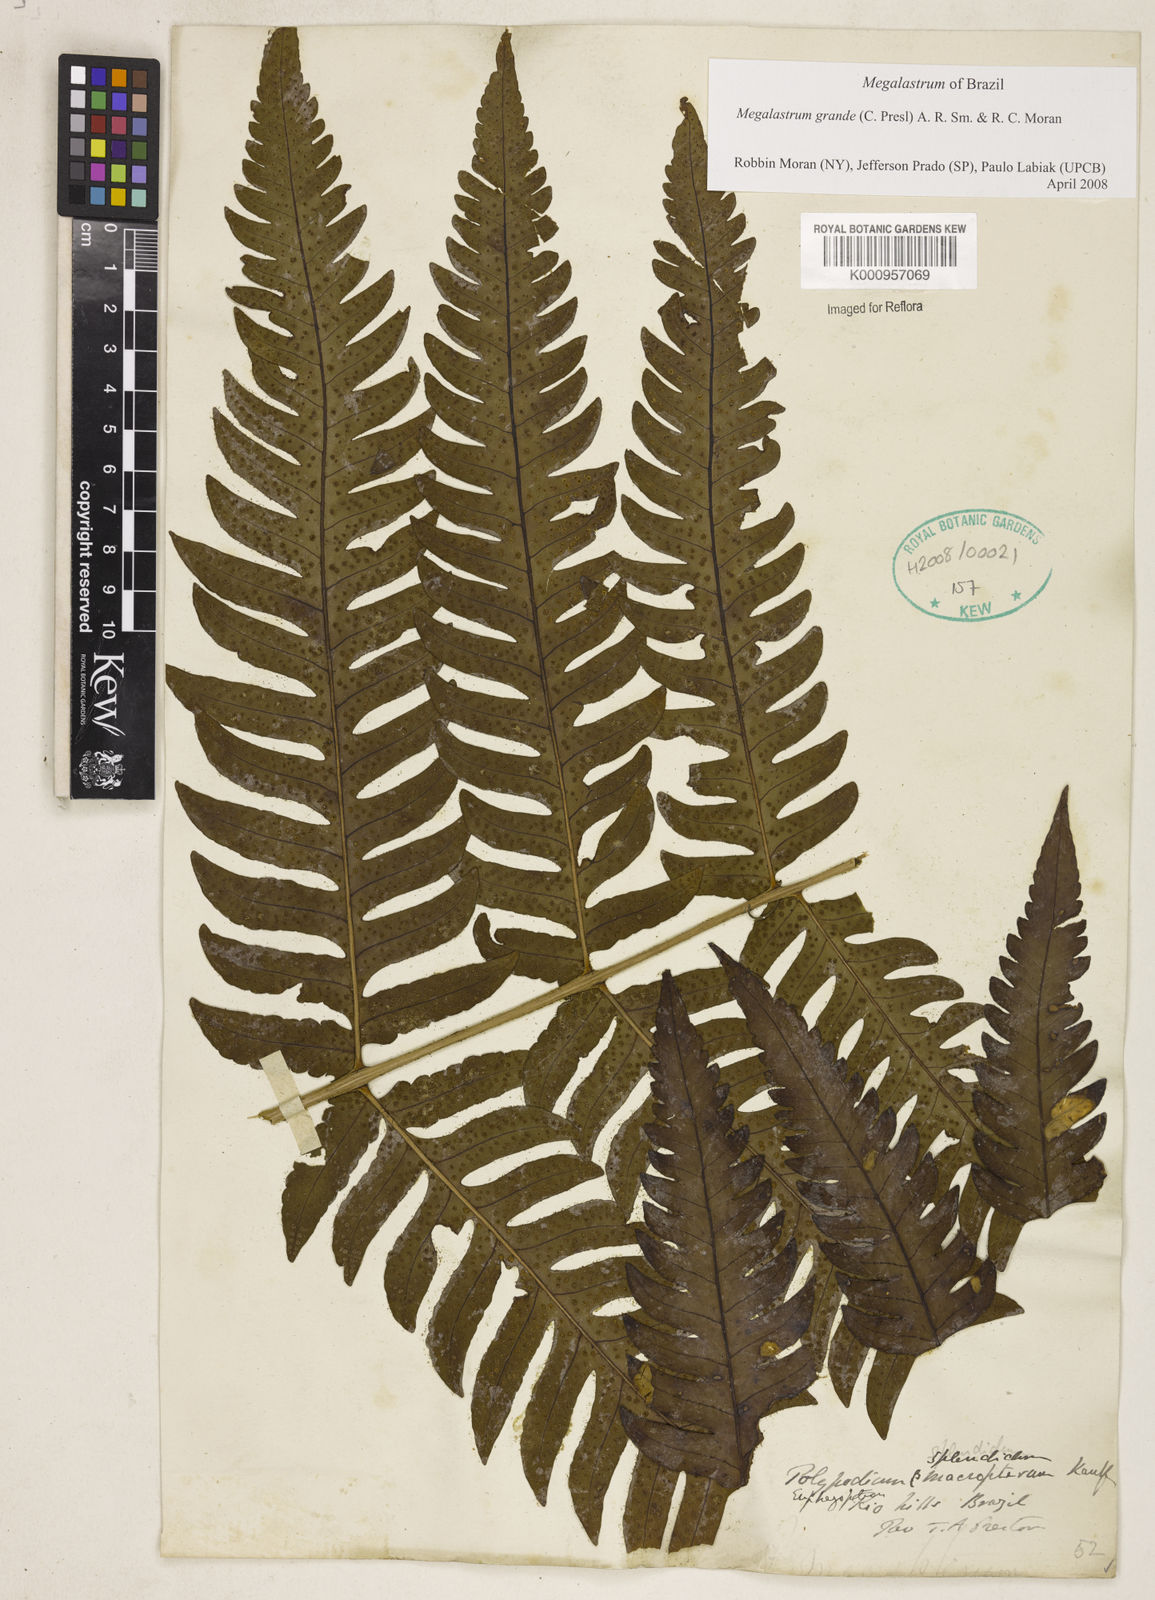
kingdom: Plantae
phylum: Tracheophyta
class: Polypodiopsida
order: Polypodiales
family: Dryopteridaceae
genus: Megalastrum
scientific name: Megalastrum grande
